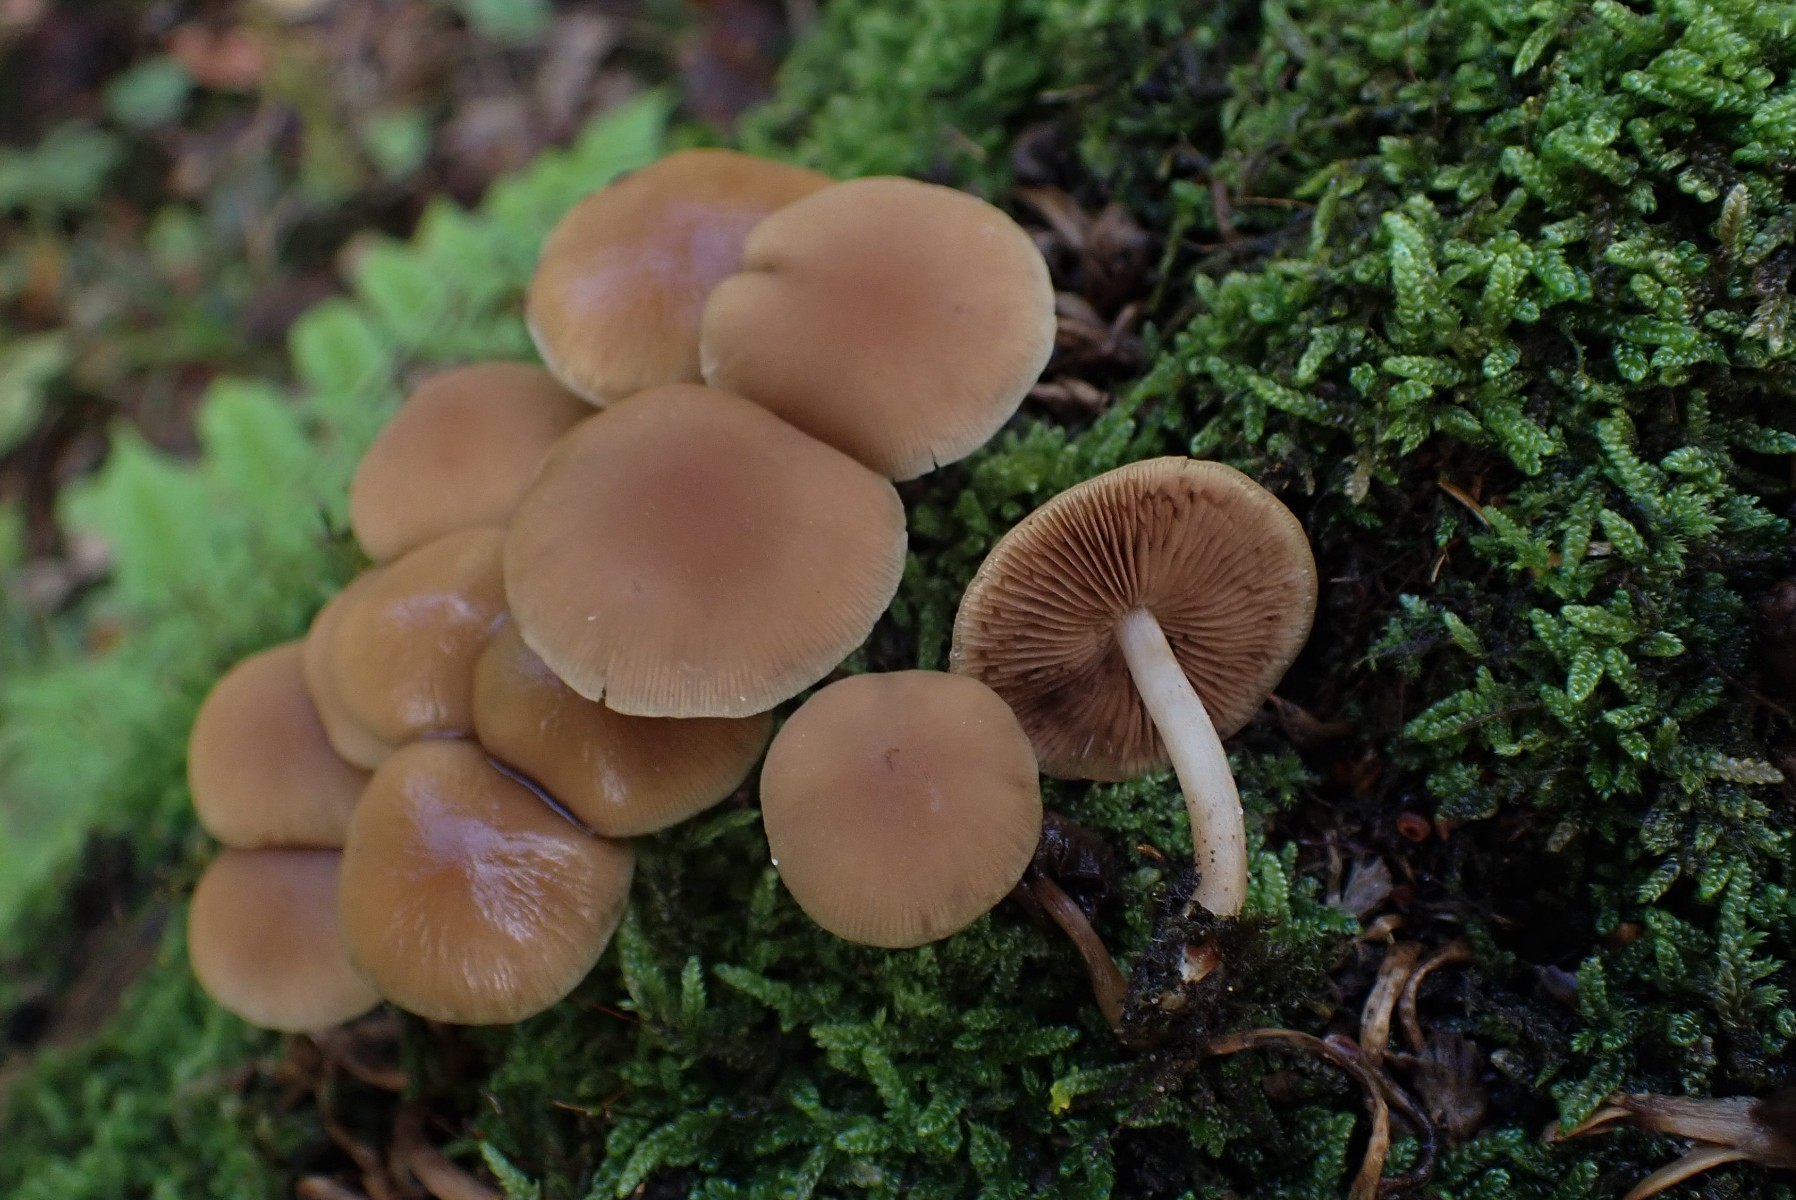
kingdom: Fungi
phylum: Basidiomycota
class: Agaricomycetes
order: Agaricales
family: Psathyrellaceae
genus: Psathyrella
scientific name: Psathyrella piluliformis
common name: lysstokket mørkhat
